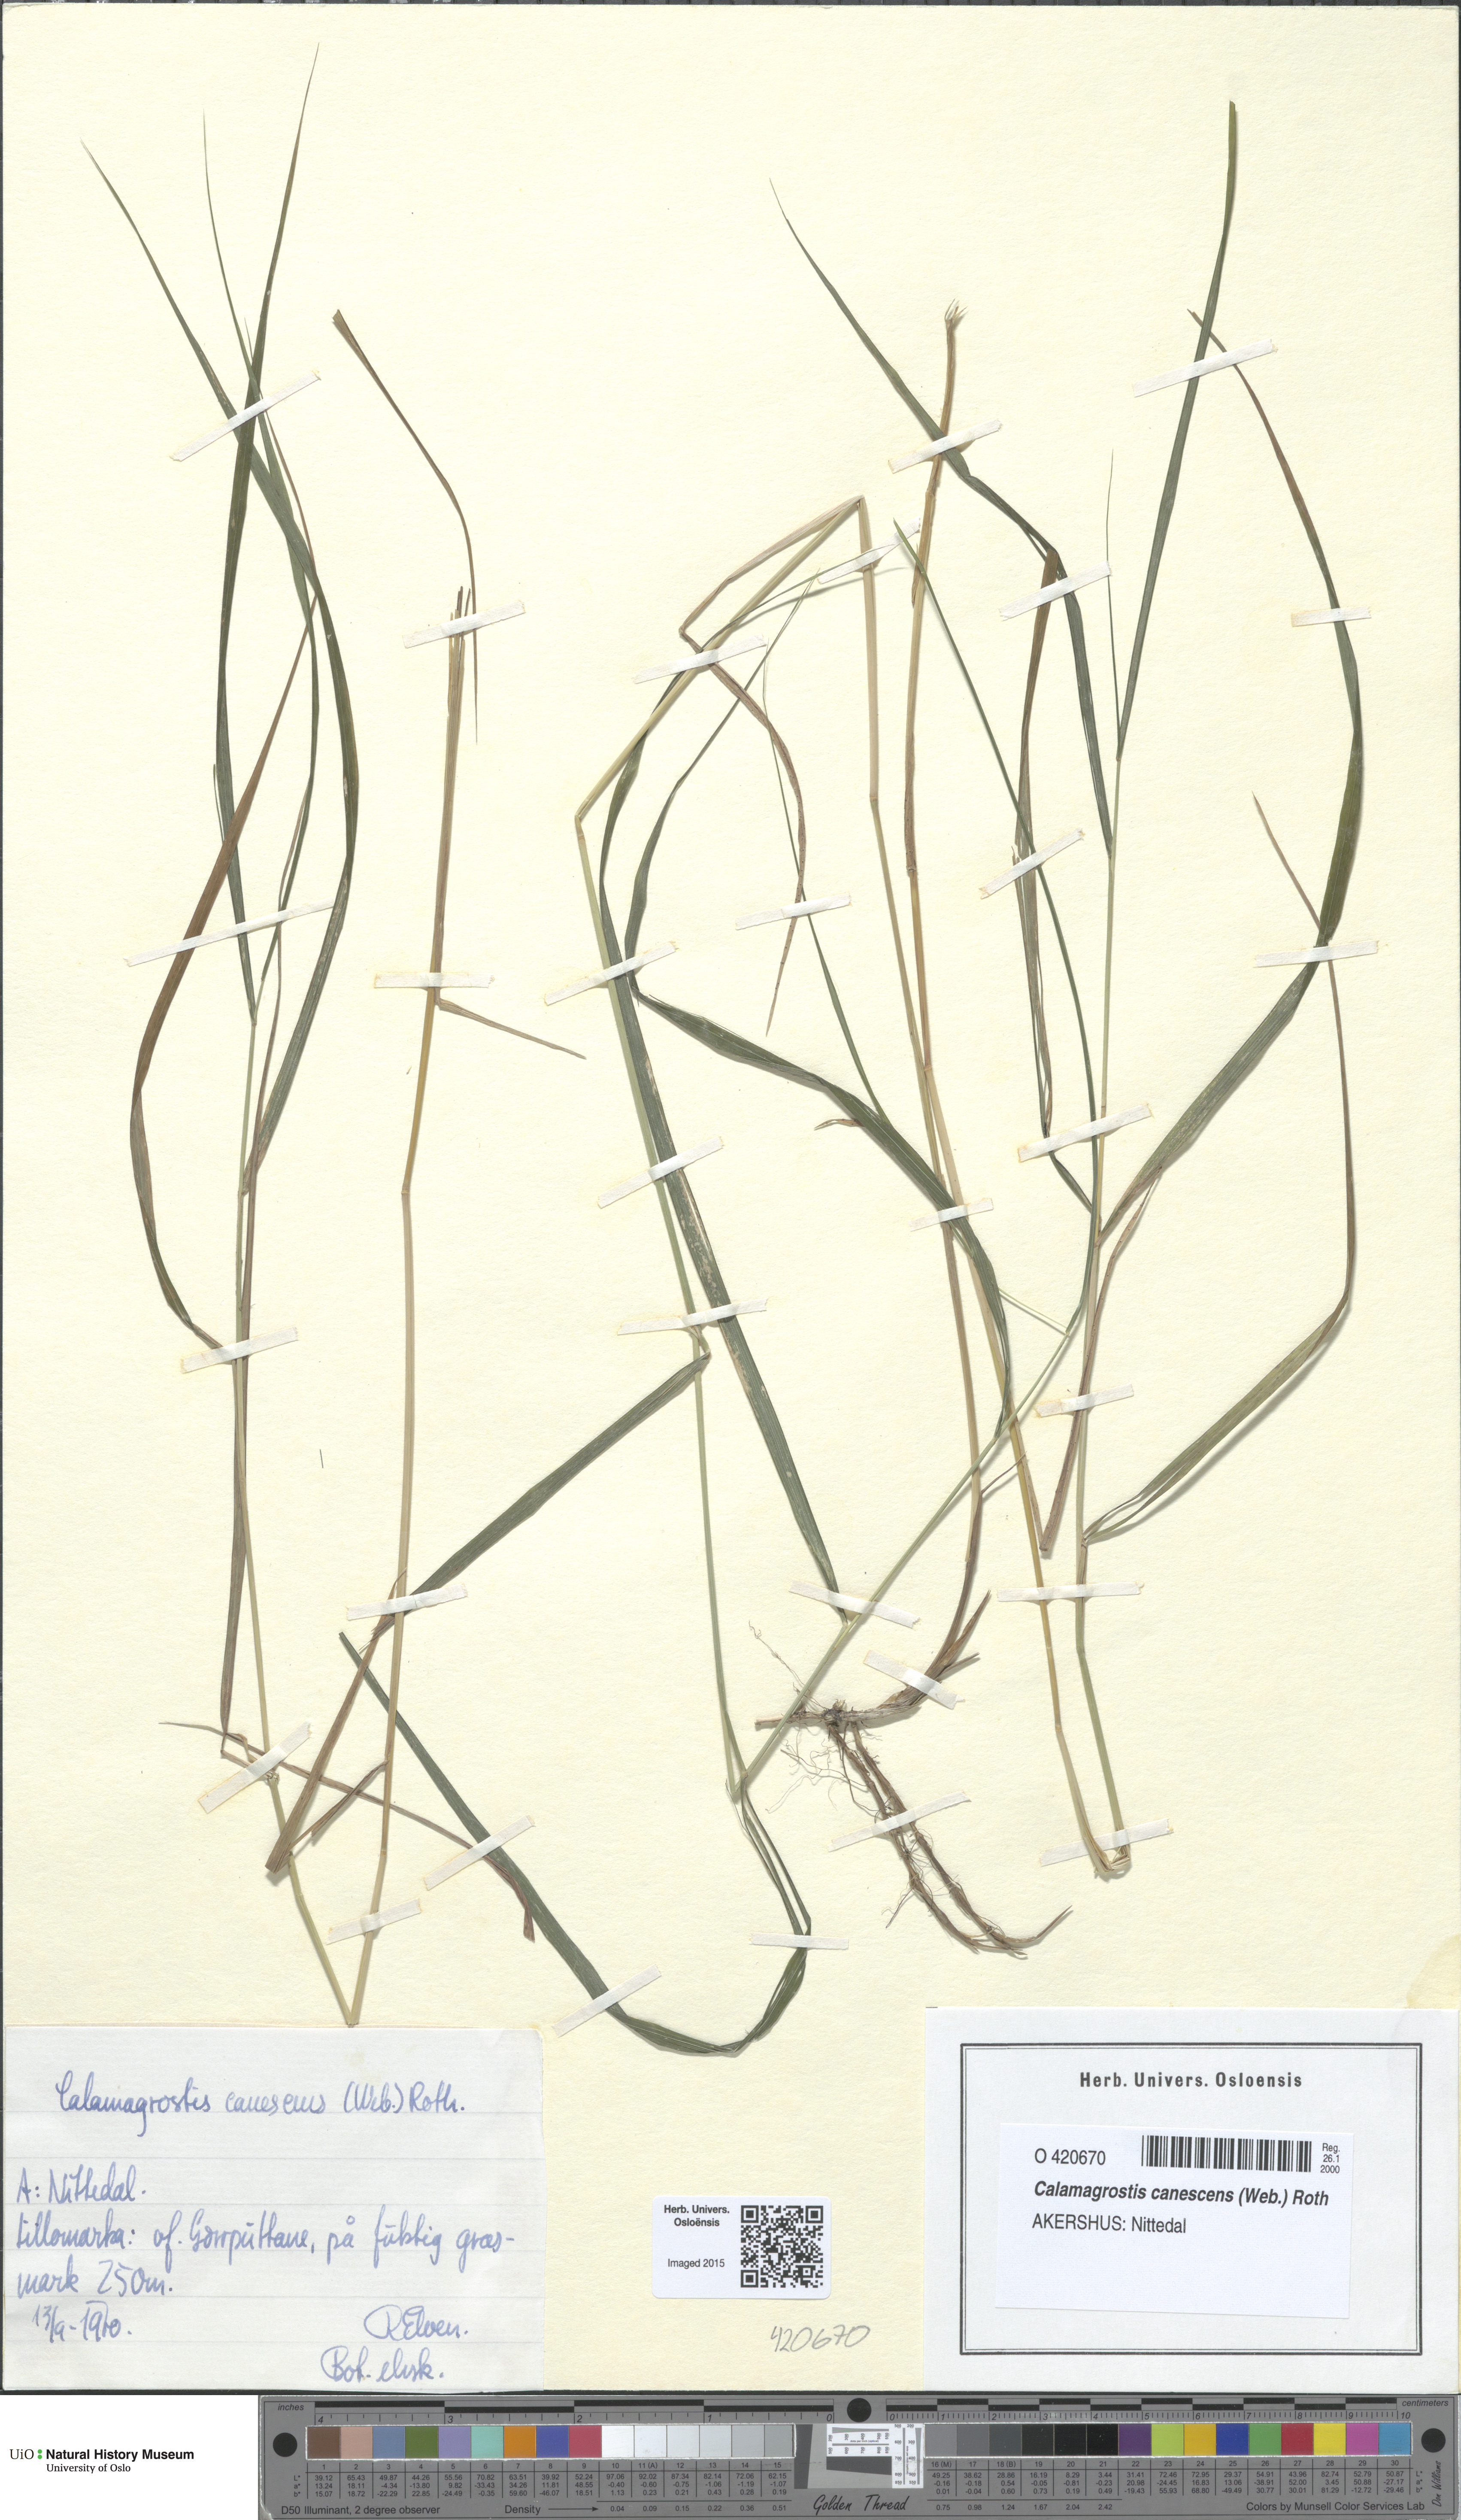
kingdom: Plantae
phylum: Tracheophyta
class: Liliopsida
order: Poales
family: Poaceae
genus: Calamagrostis
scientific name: Calamagrostis canescens
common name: Purple small-reed
